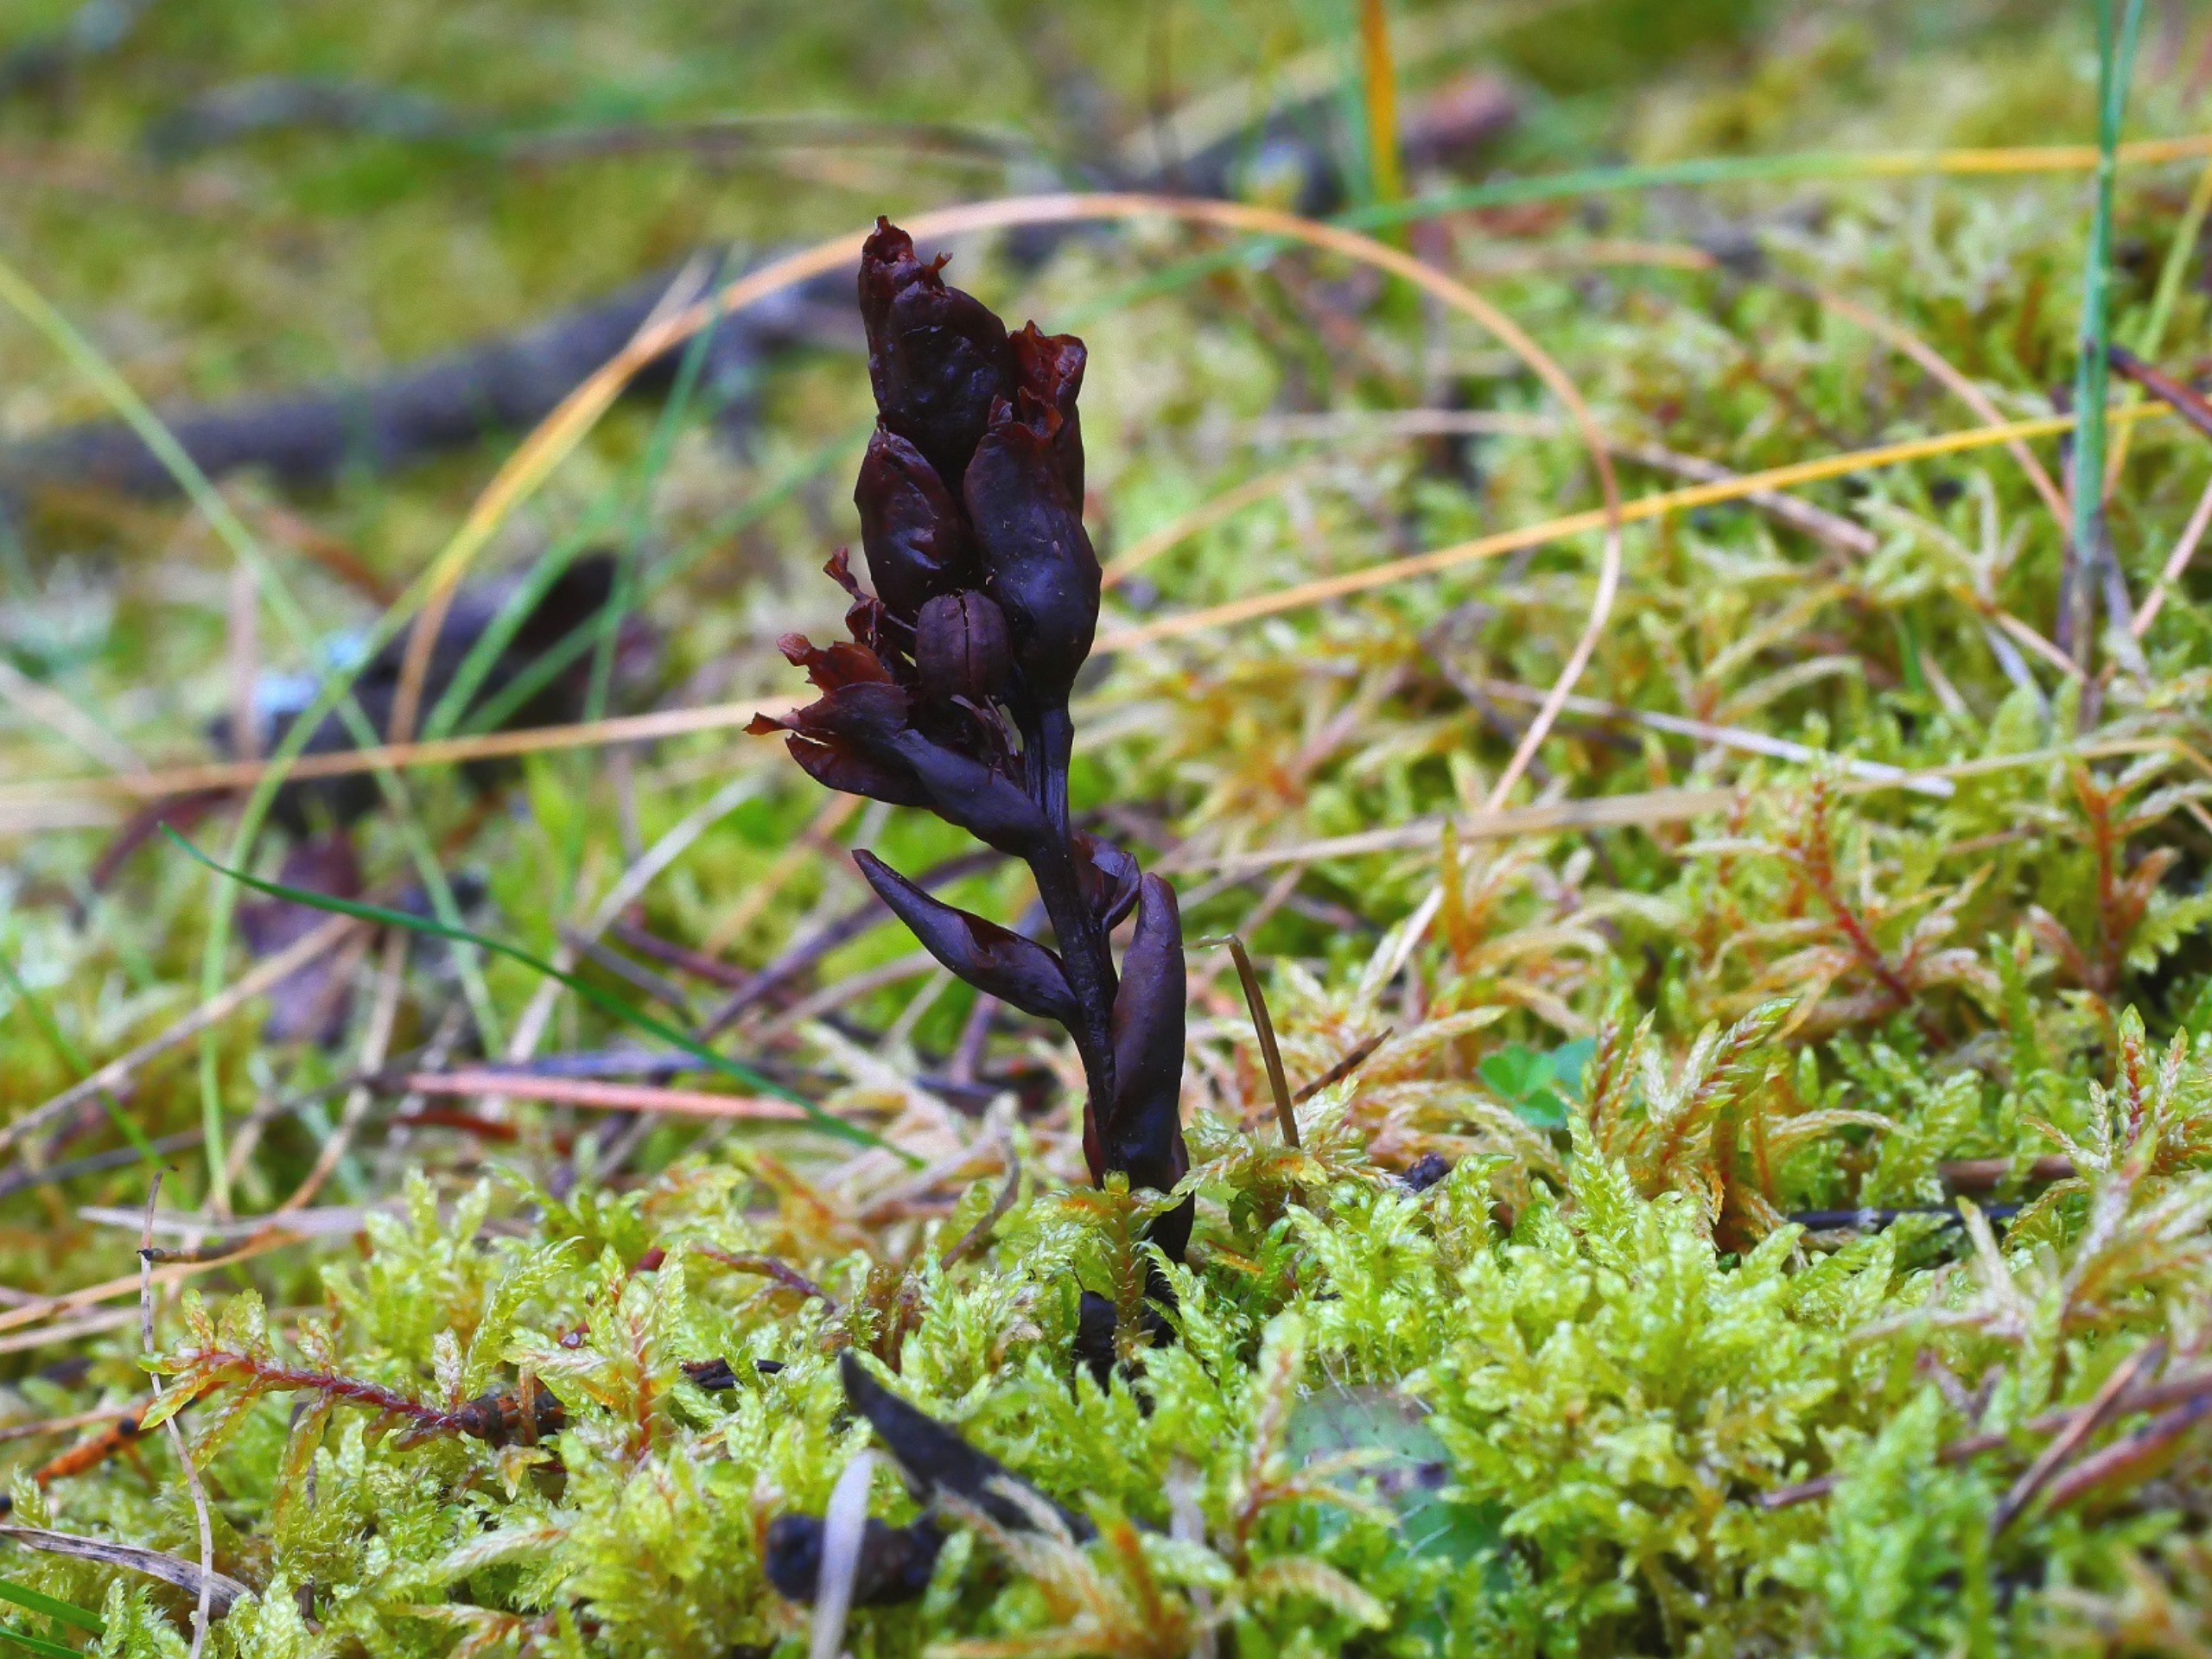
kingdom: Plantae
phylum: Tracheophyta
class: Magnoliopsida
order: Ericales
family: Ericaceae
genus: Hypopitys
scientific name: Hypopitys hypophegea
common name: Glat snylterod
